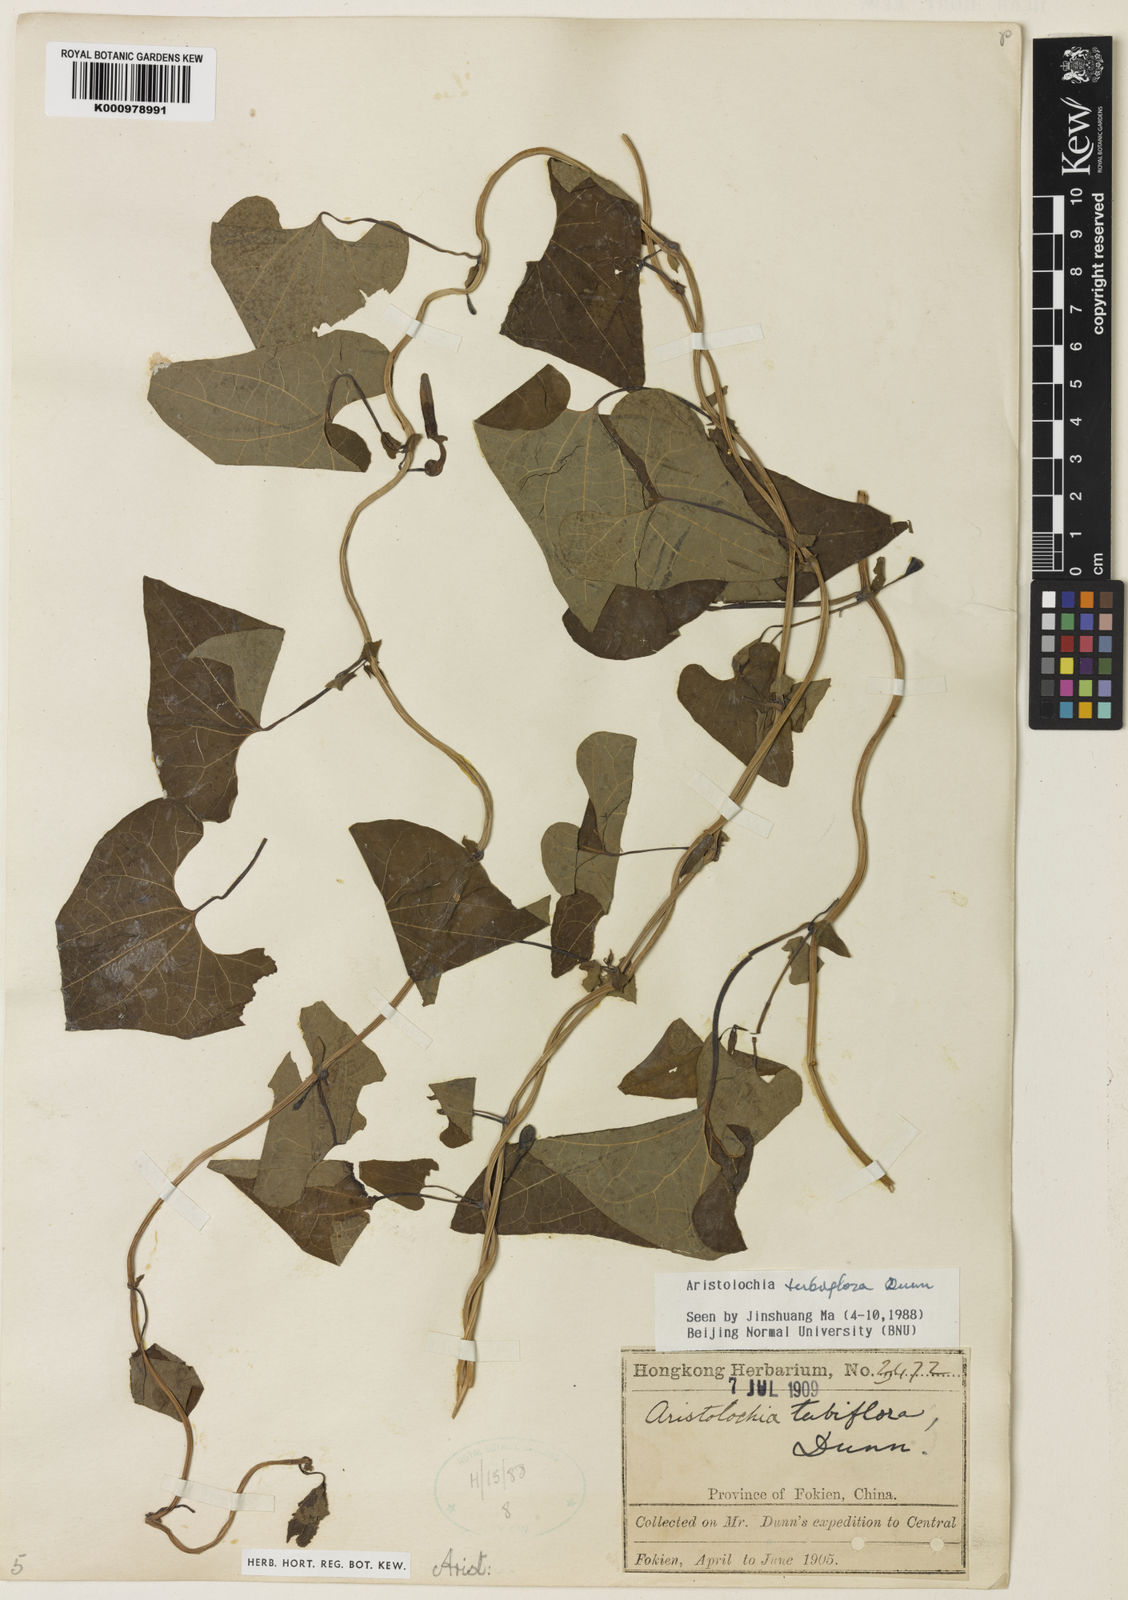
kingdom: Plantae
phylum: Tracheophyta
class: Magnoliopsida
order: Piperales
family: Aristolochiaceae
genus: Aristolochia
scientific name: Aristolochia tubiflora
